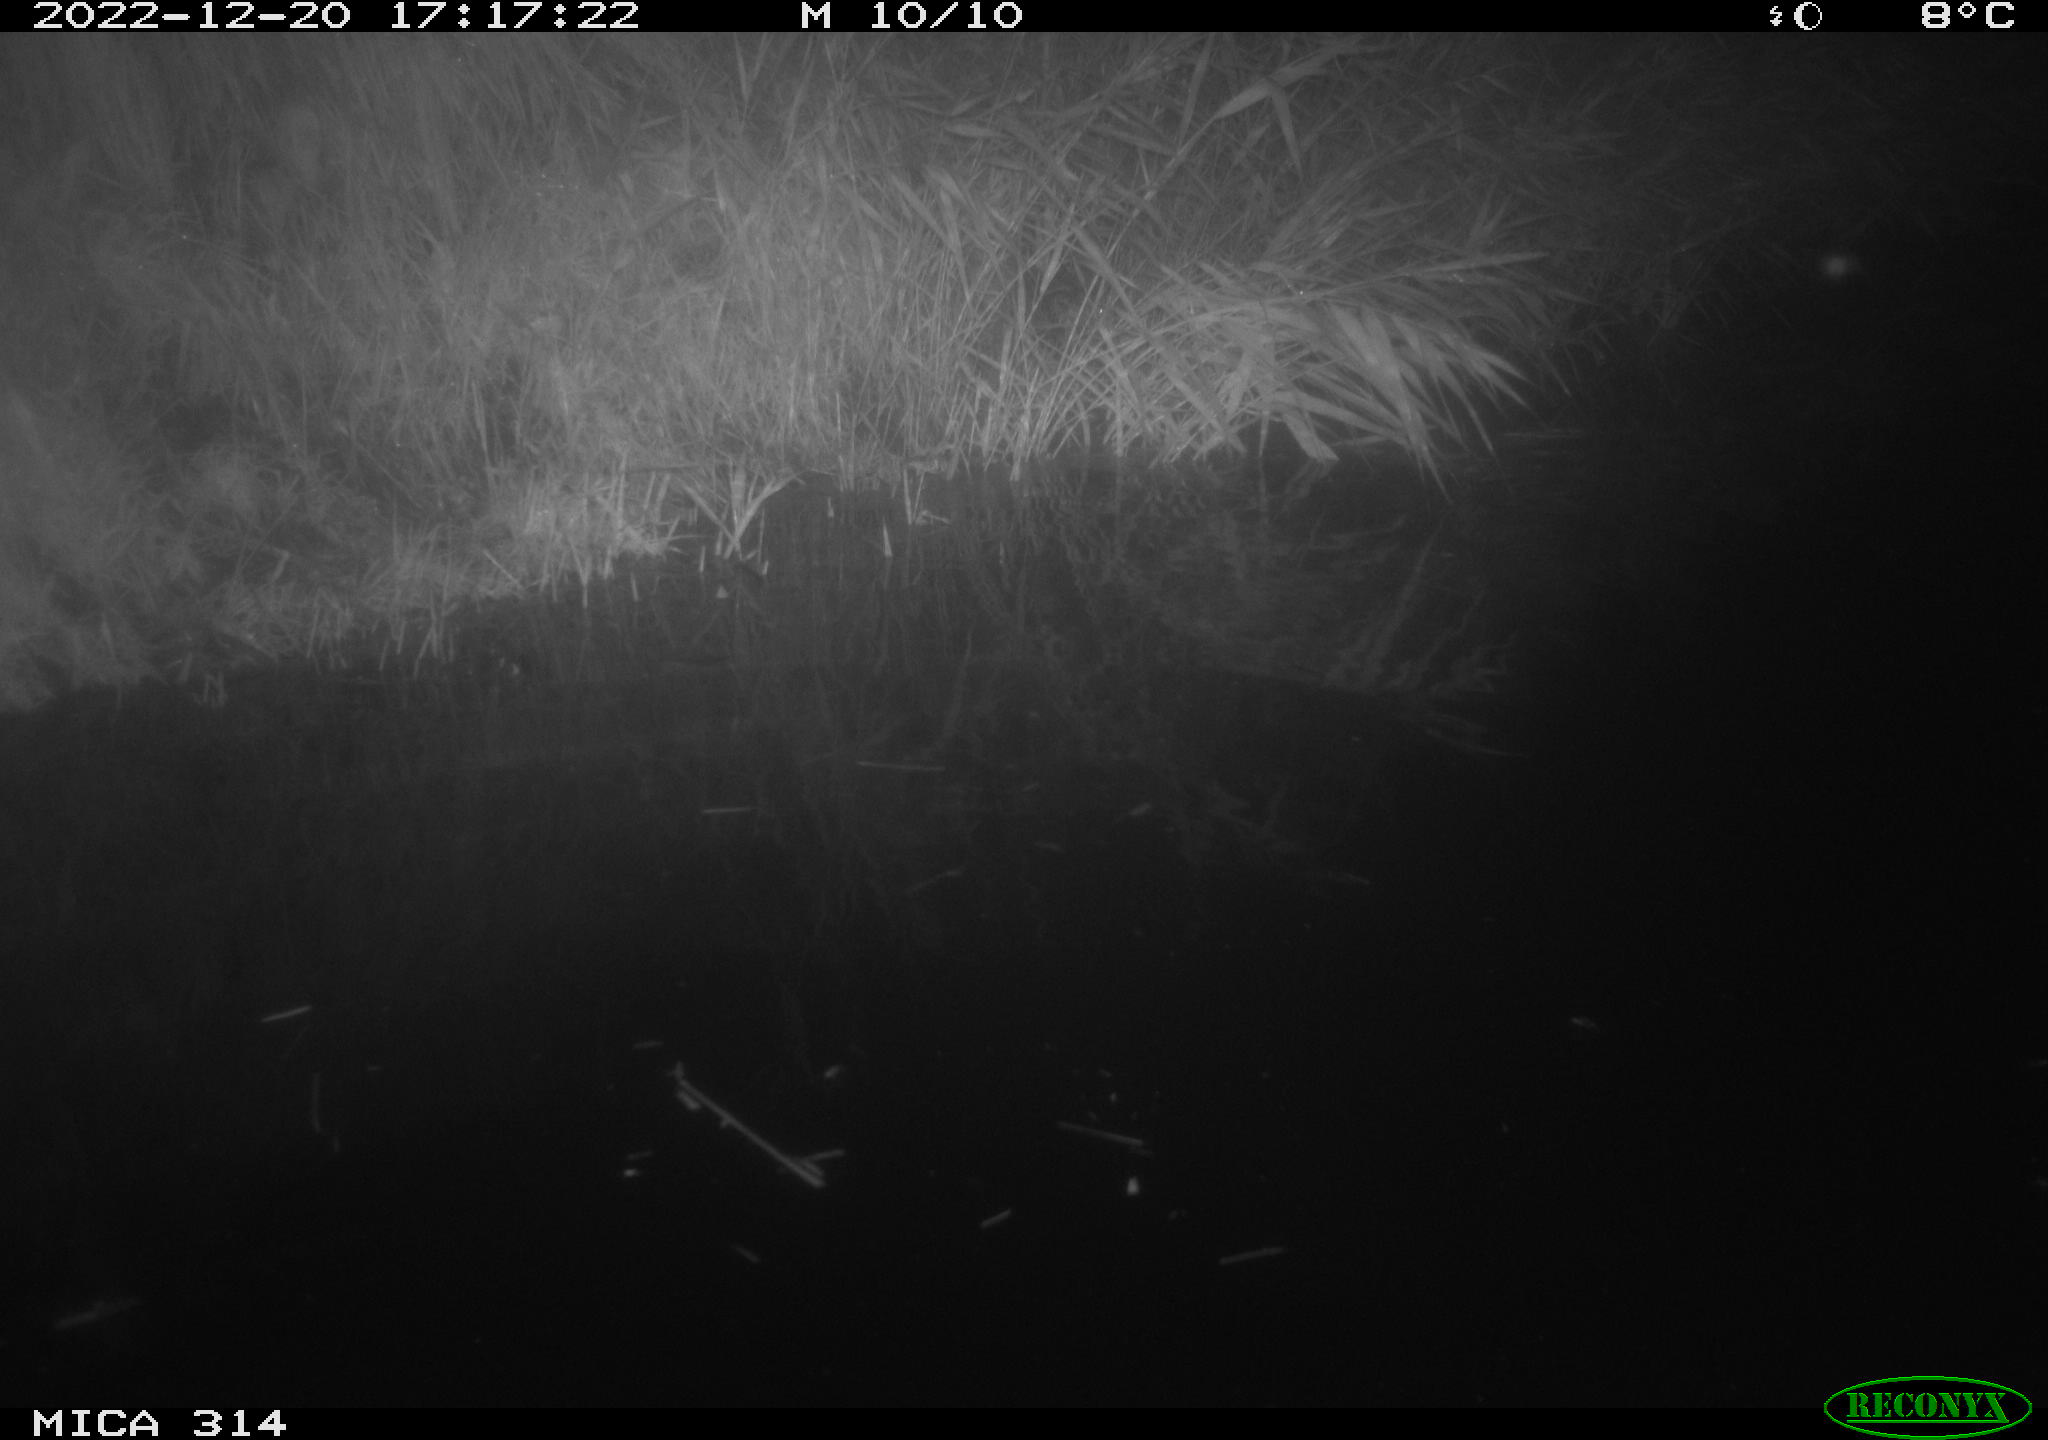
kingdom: Animalia
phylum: Chordata
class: Mammalia
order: Rodentia
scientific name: Rodentia
